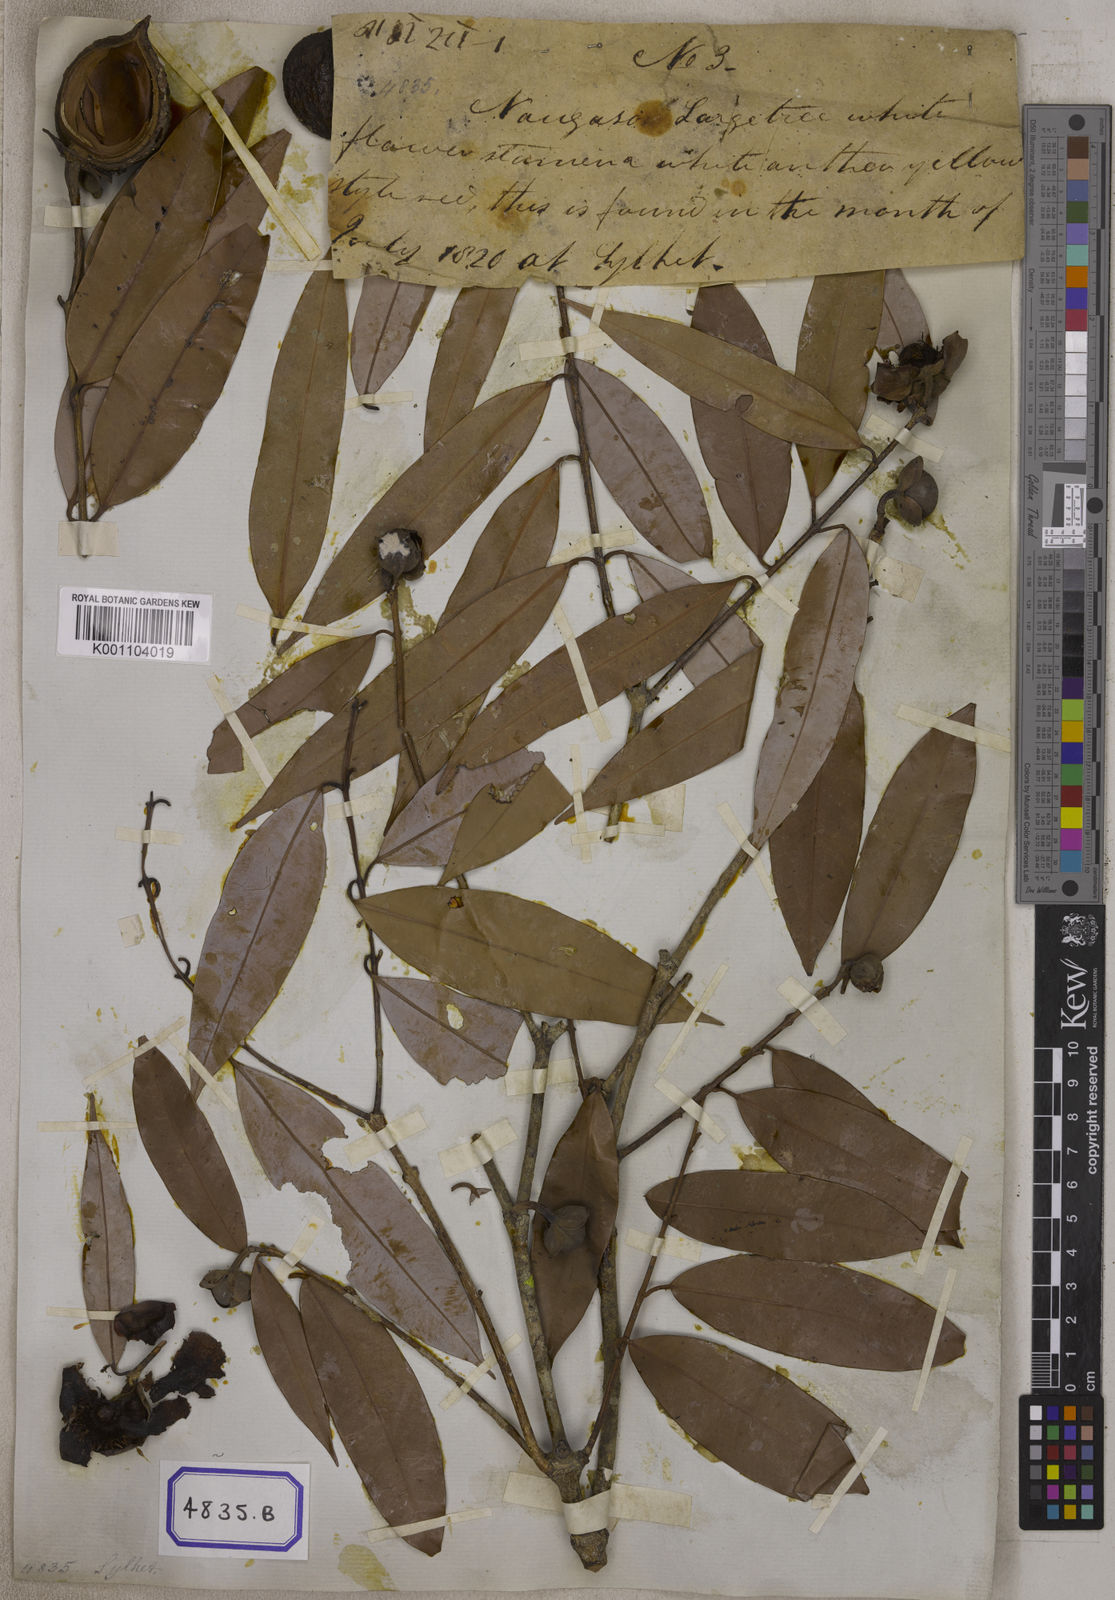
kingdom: Plantae
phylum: Tracheophyta
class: Magnoliopsida
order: Malpighiales
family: Calophyllaceae
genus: Mesua
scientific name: Mesua ferrea
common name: Mesua
